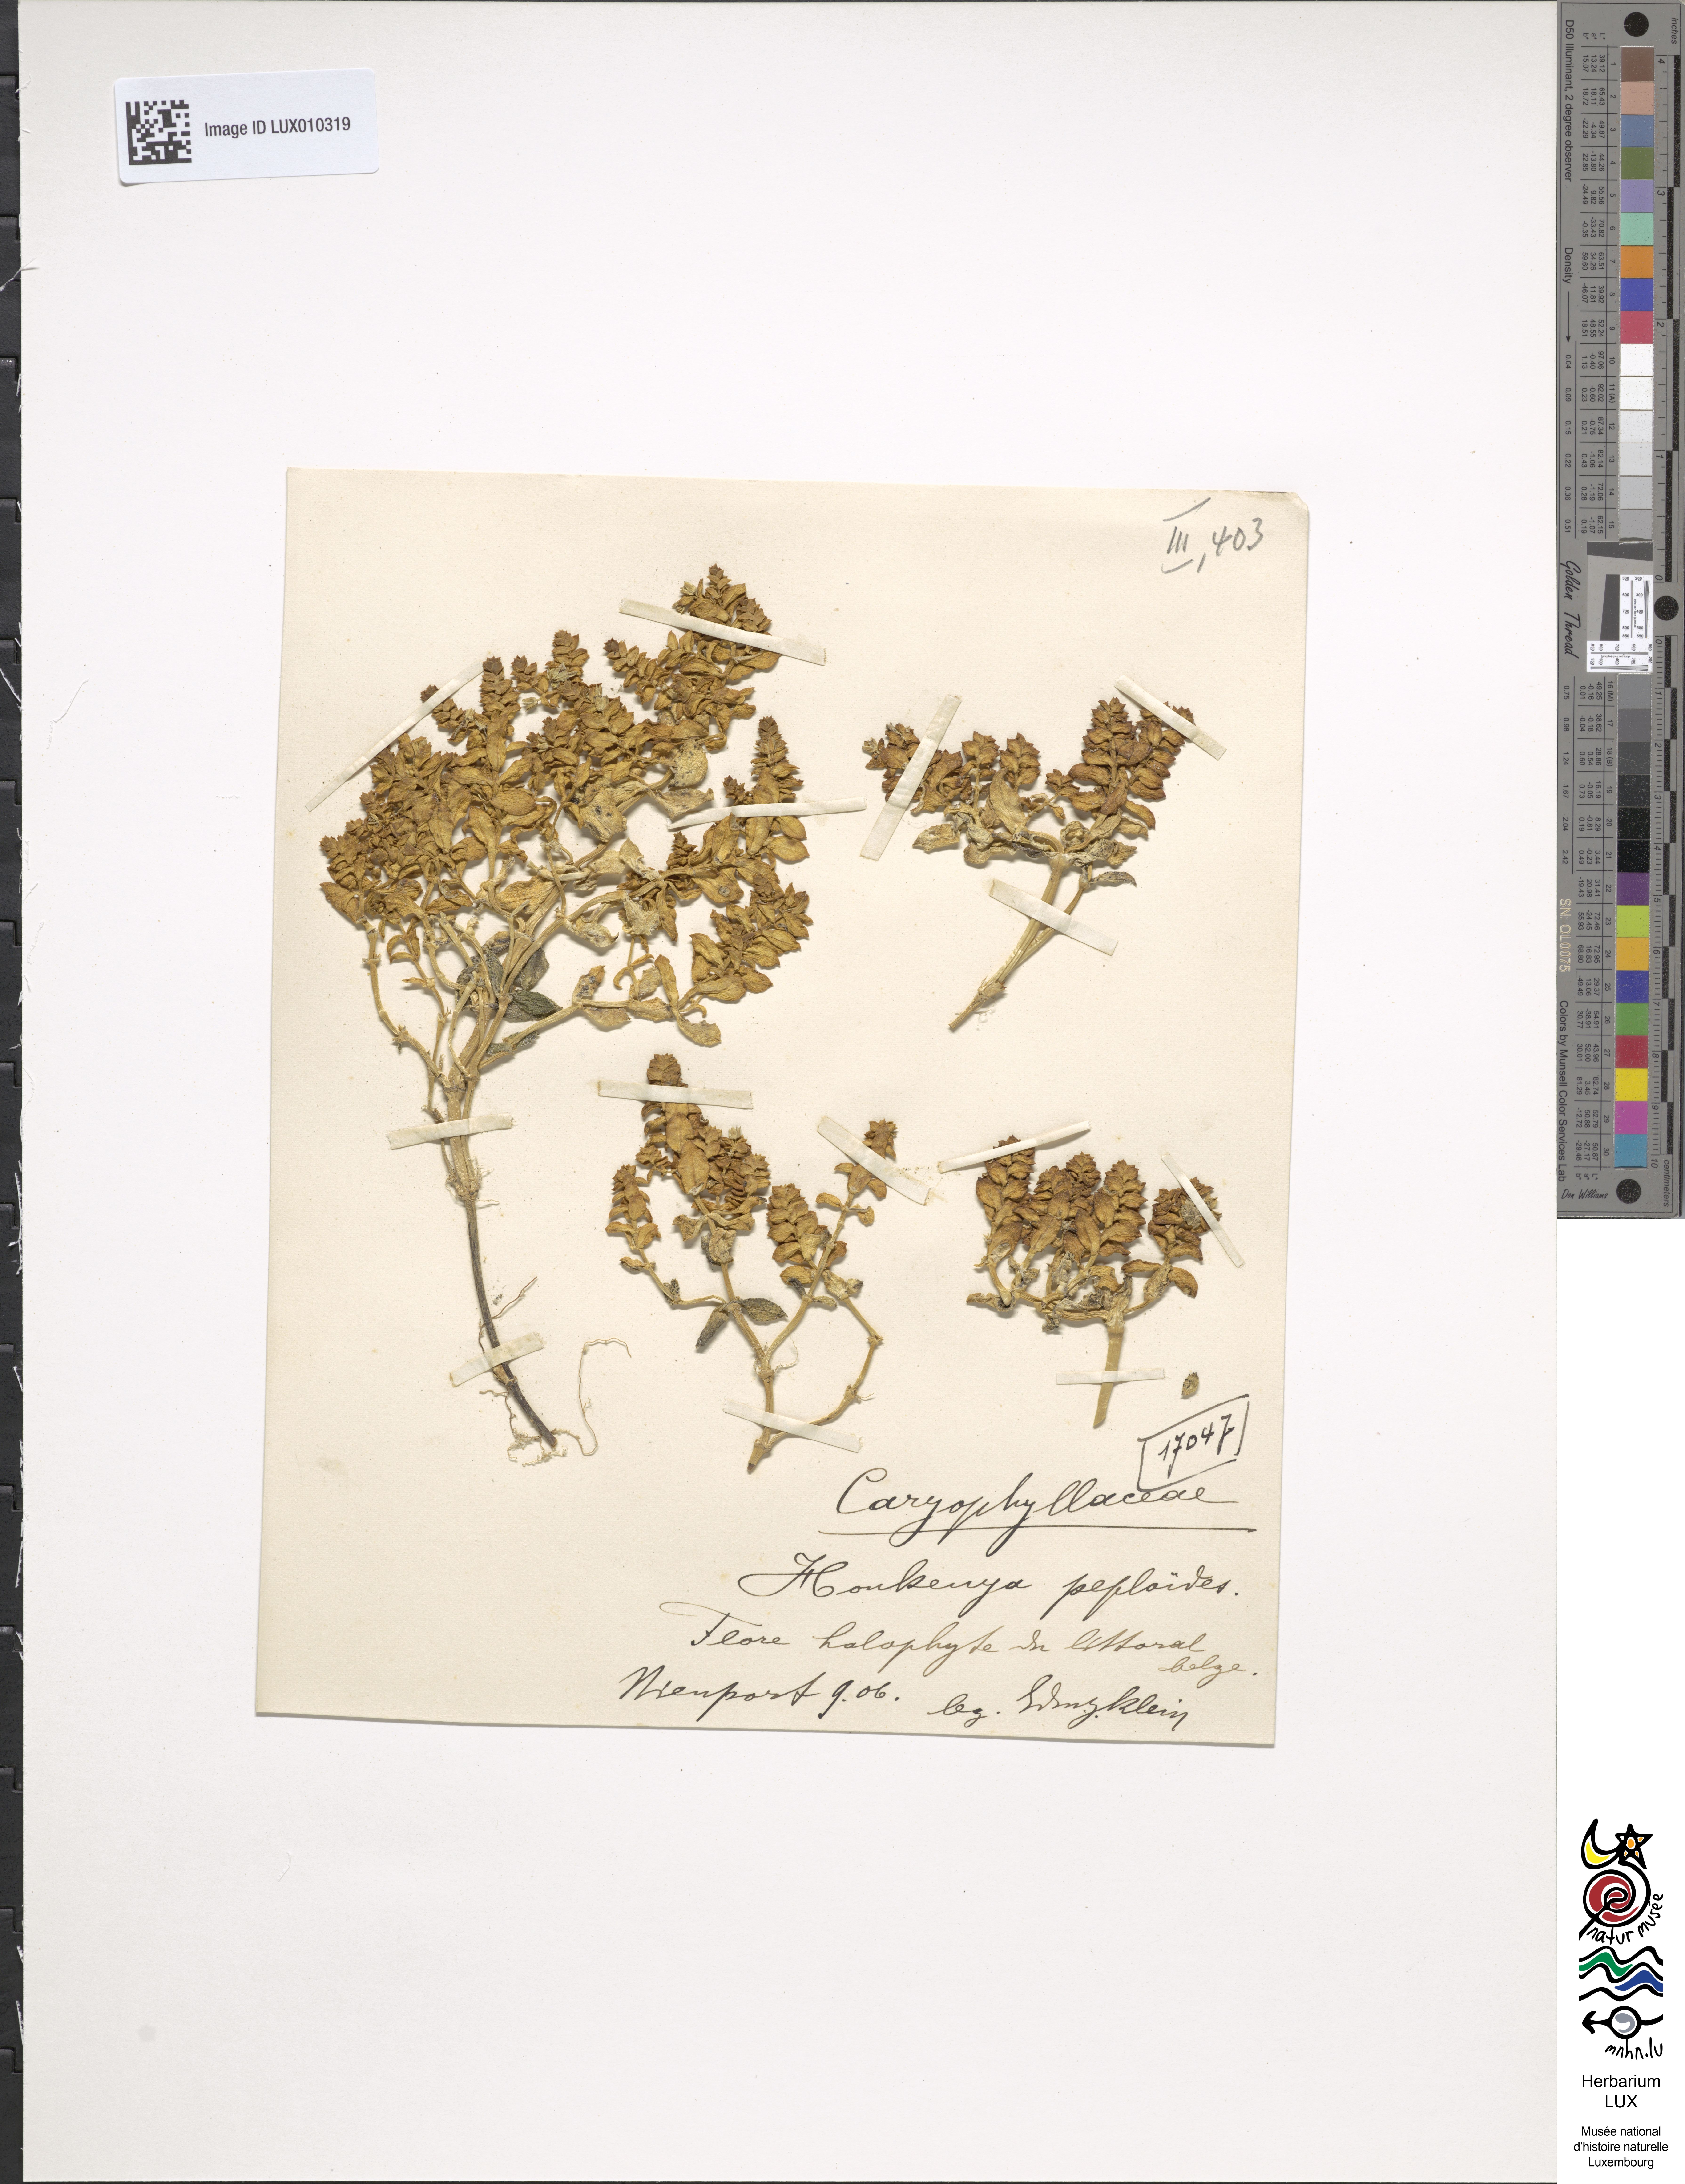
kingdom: Plantae
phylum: Tracheophyta
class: Magnoliopsida
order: Caryophyllales
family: Caryophyllaceae
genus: Honckenya
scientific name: Honckenya peploides
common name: Sea sandwort
